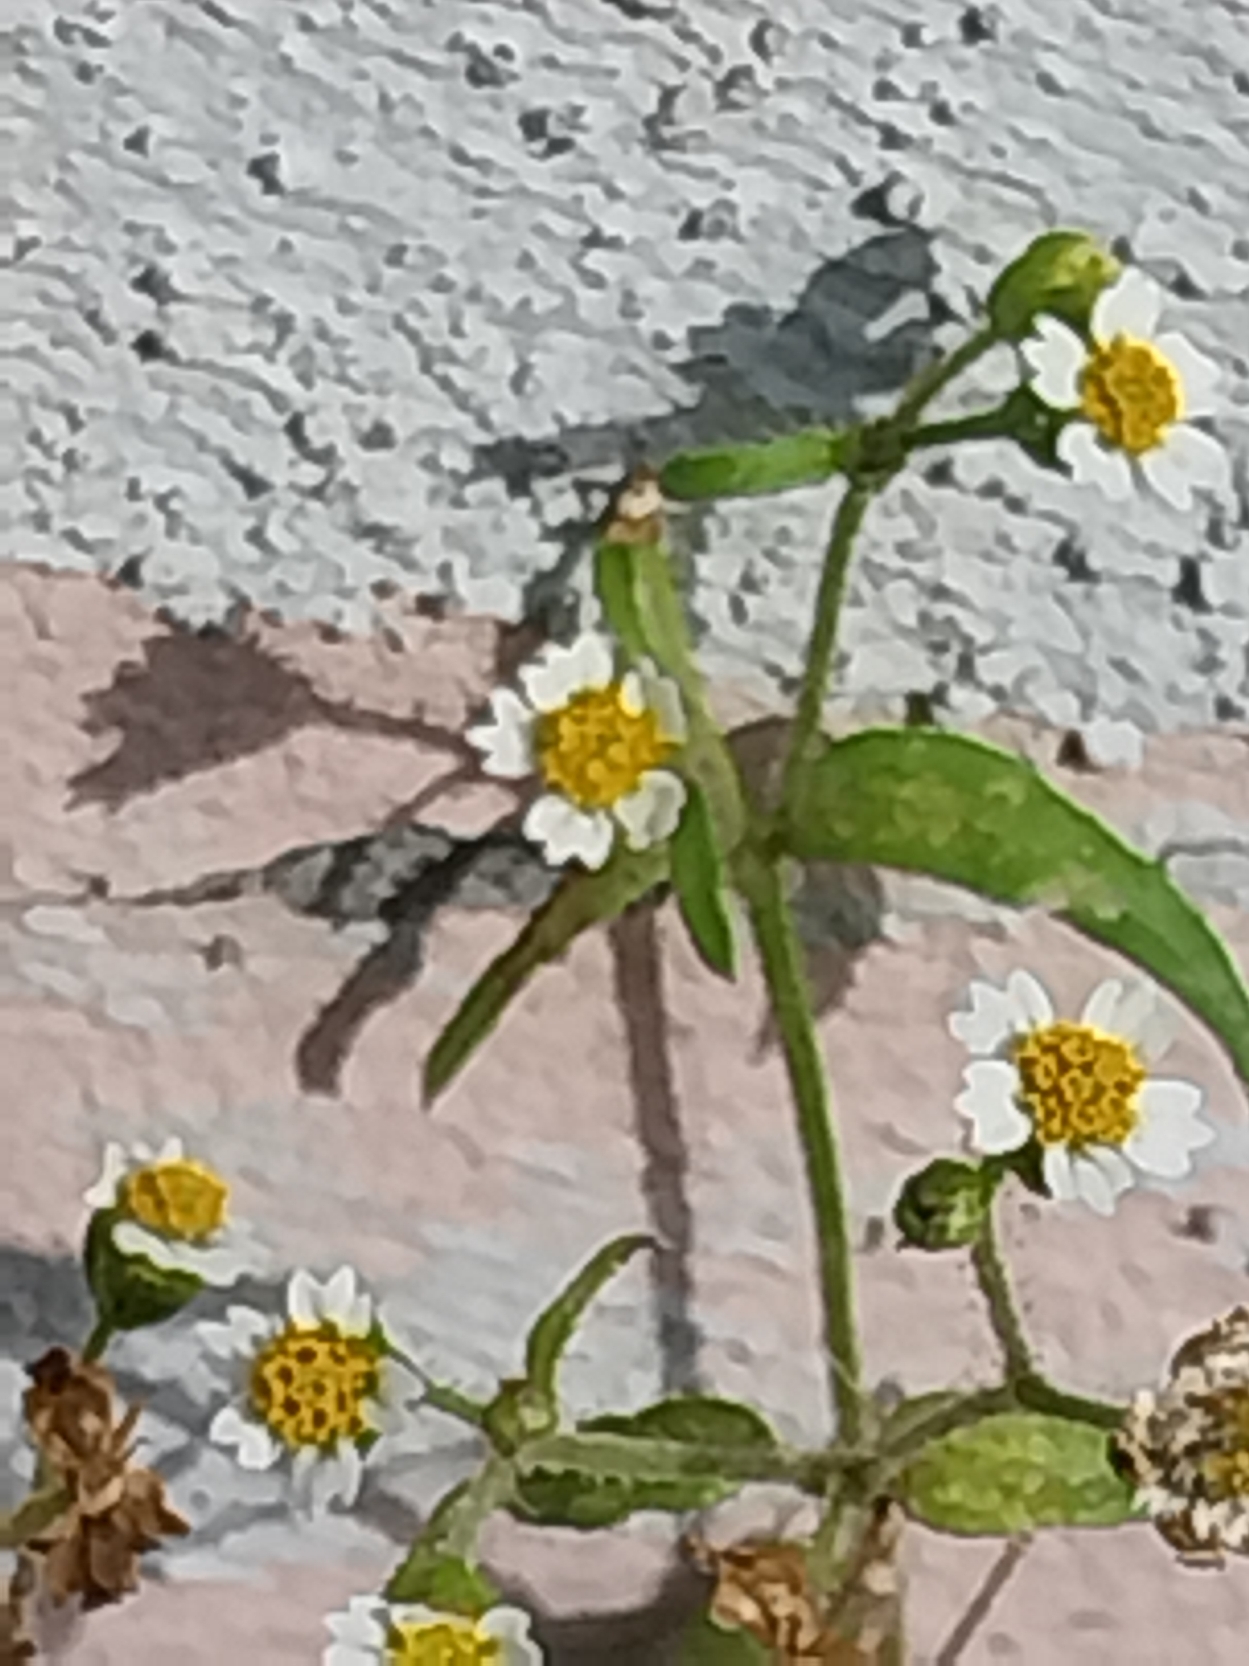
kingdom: Plantae
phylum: Tracheophyta
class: Magnoliopsida
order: Asterales
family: Asteraceae
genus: Galinsoga
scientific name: Galinsoga quadriradiata
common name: Kirtel-kortstråle
